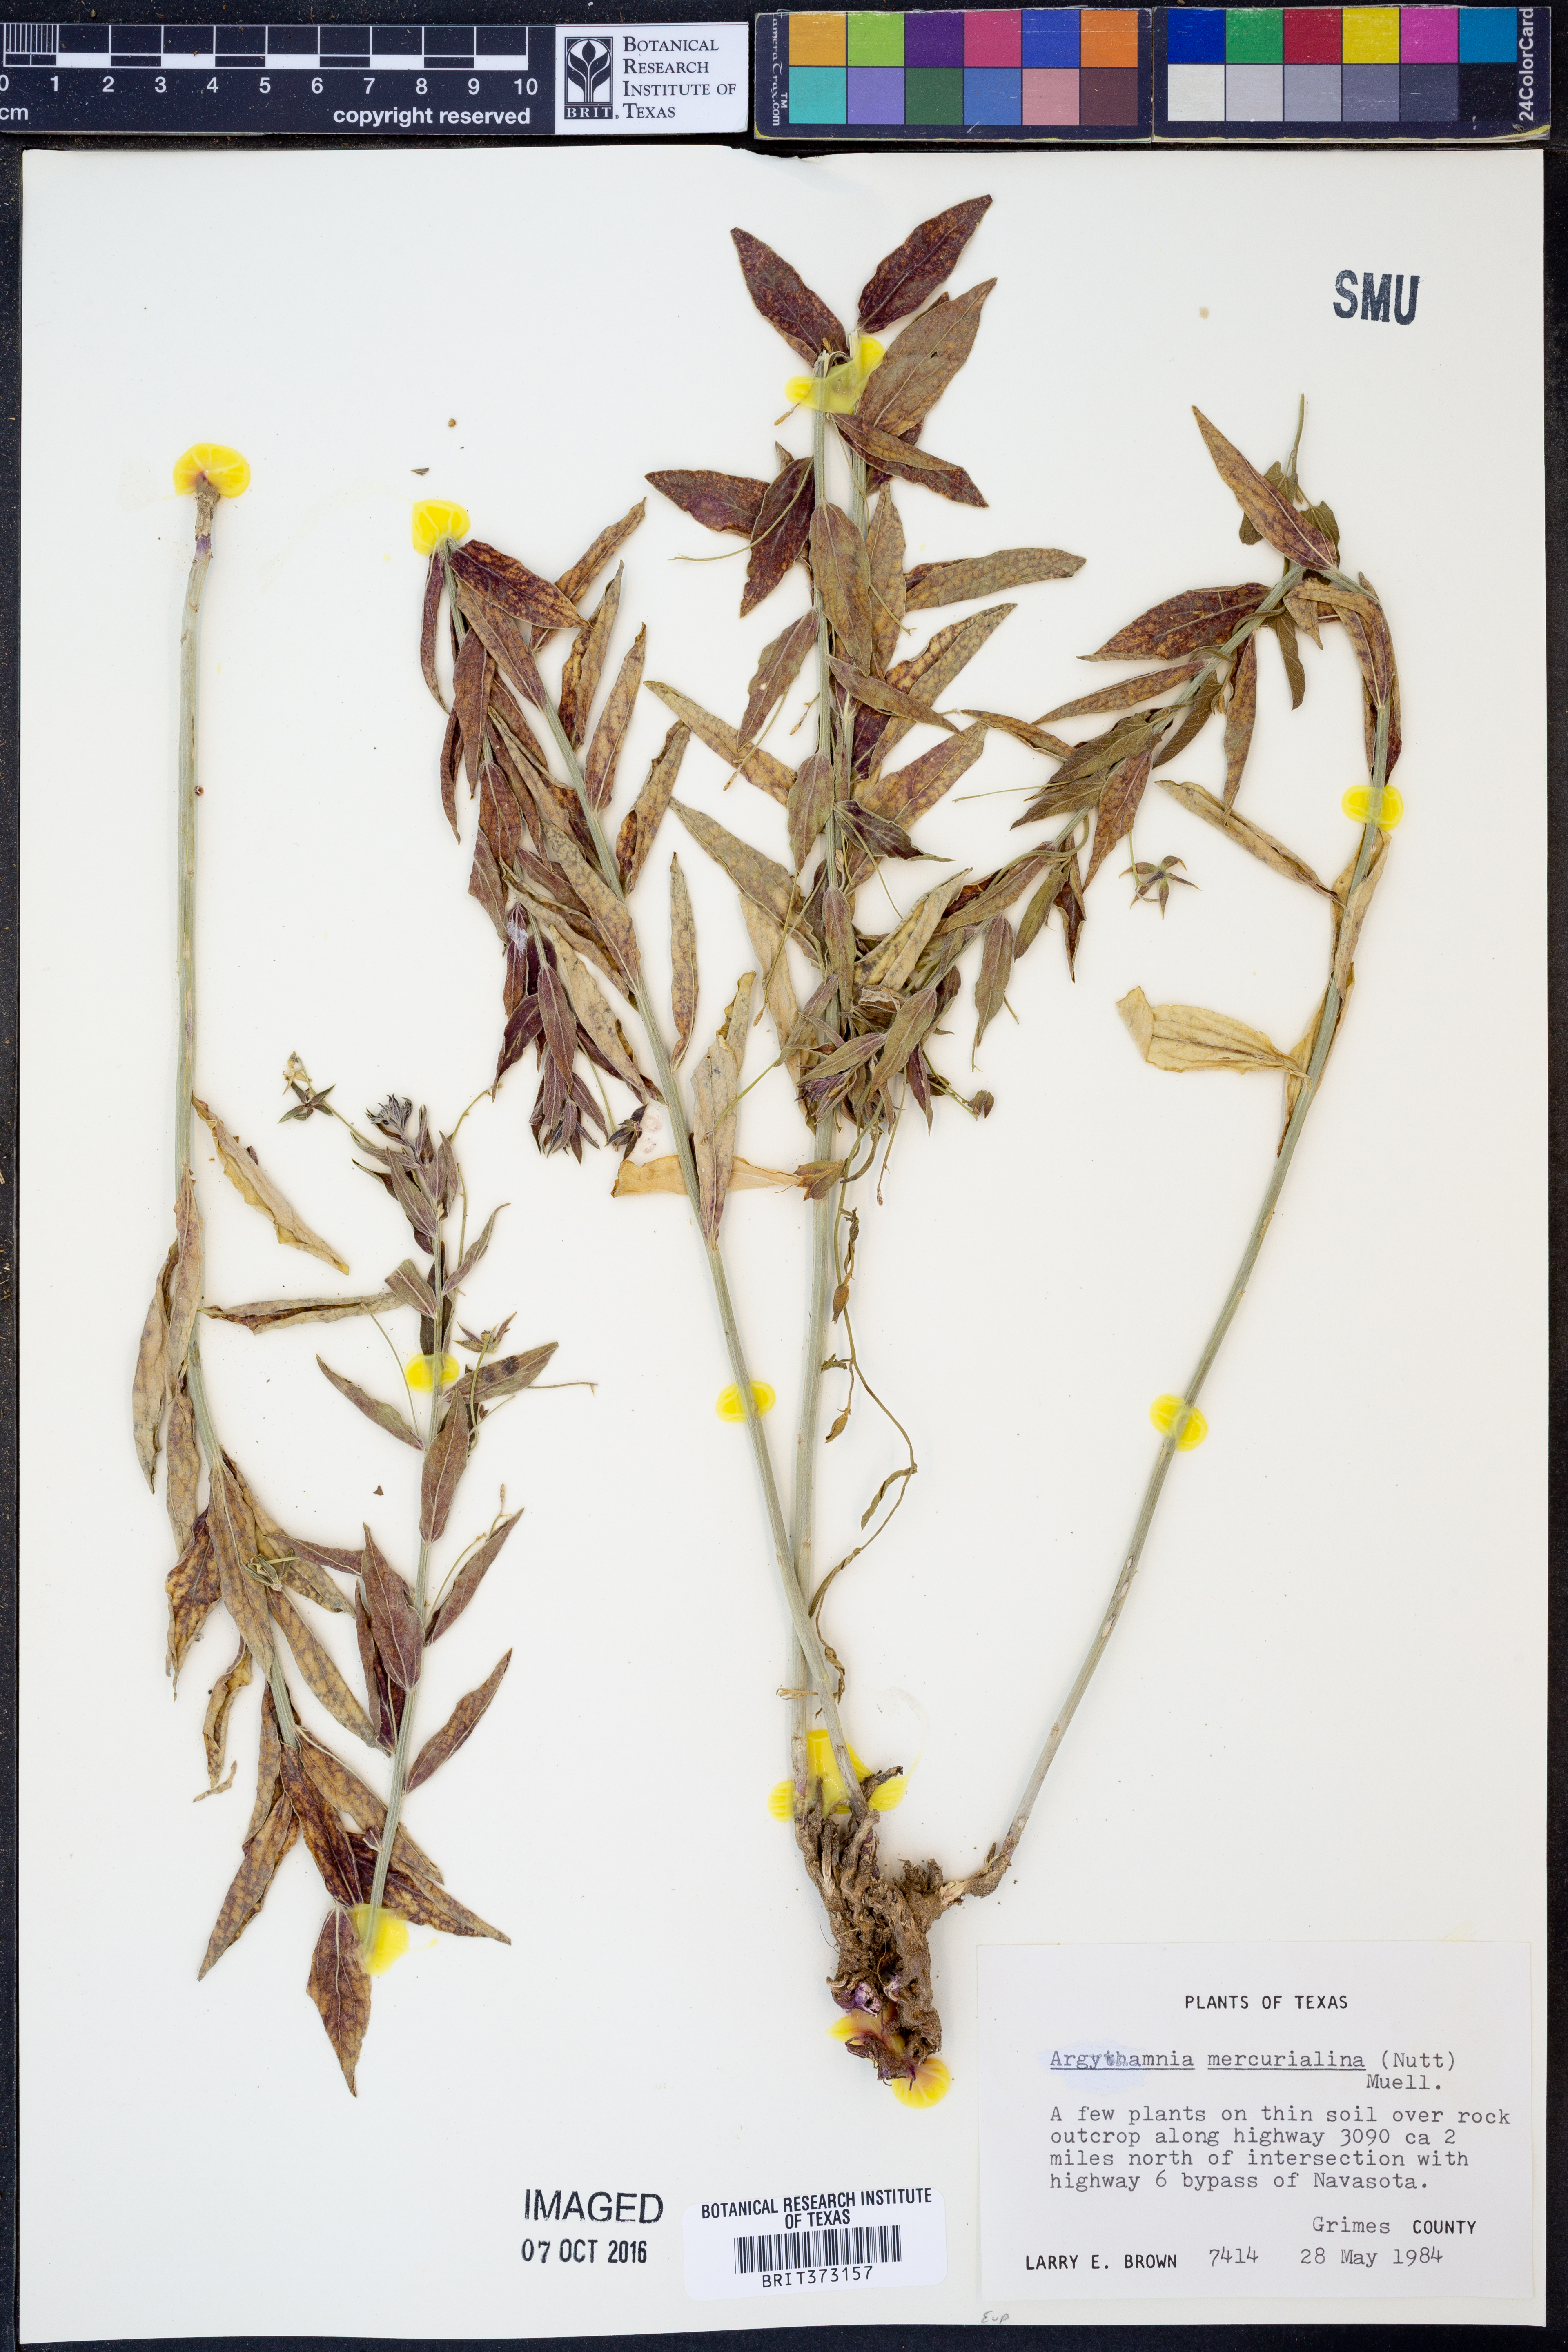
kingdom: Plantae
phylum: Tracheophyta
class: Magnoliopsida
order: Malpighiales
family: Euphorbiaceae
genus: Ditaxis
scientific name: Ditaxis mercurialina
